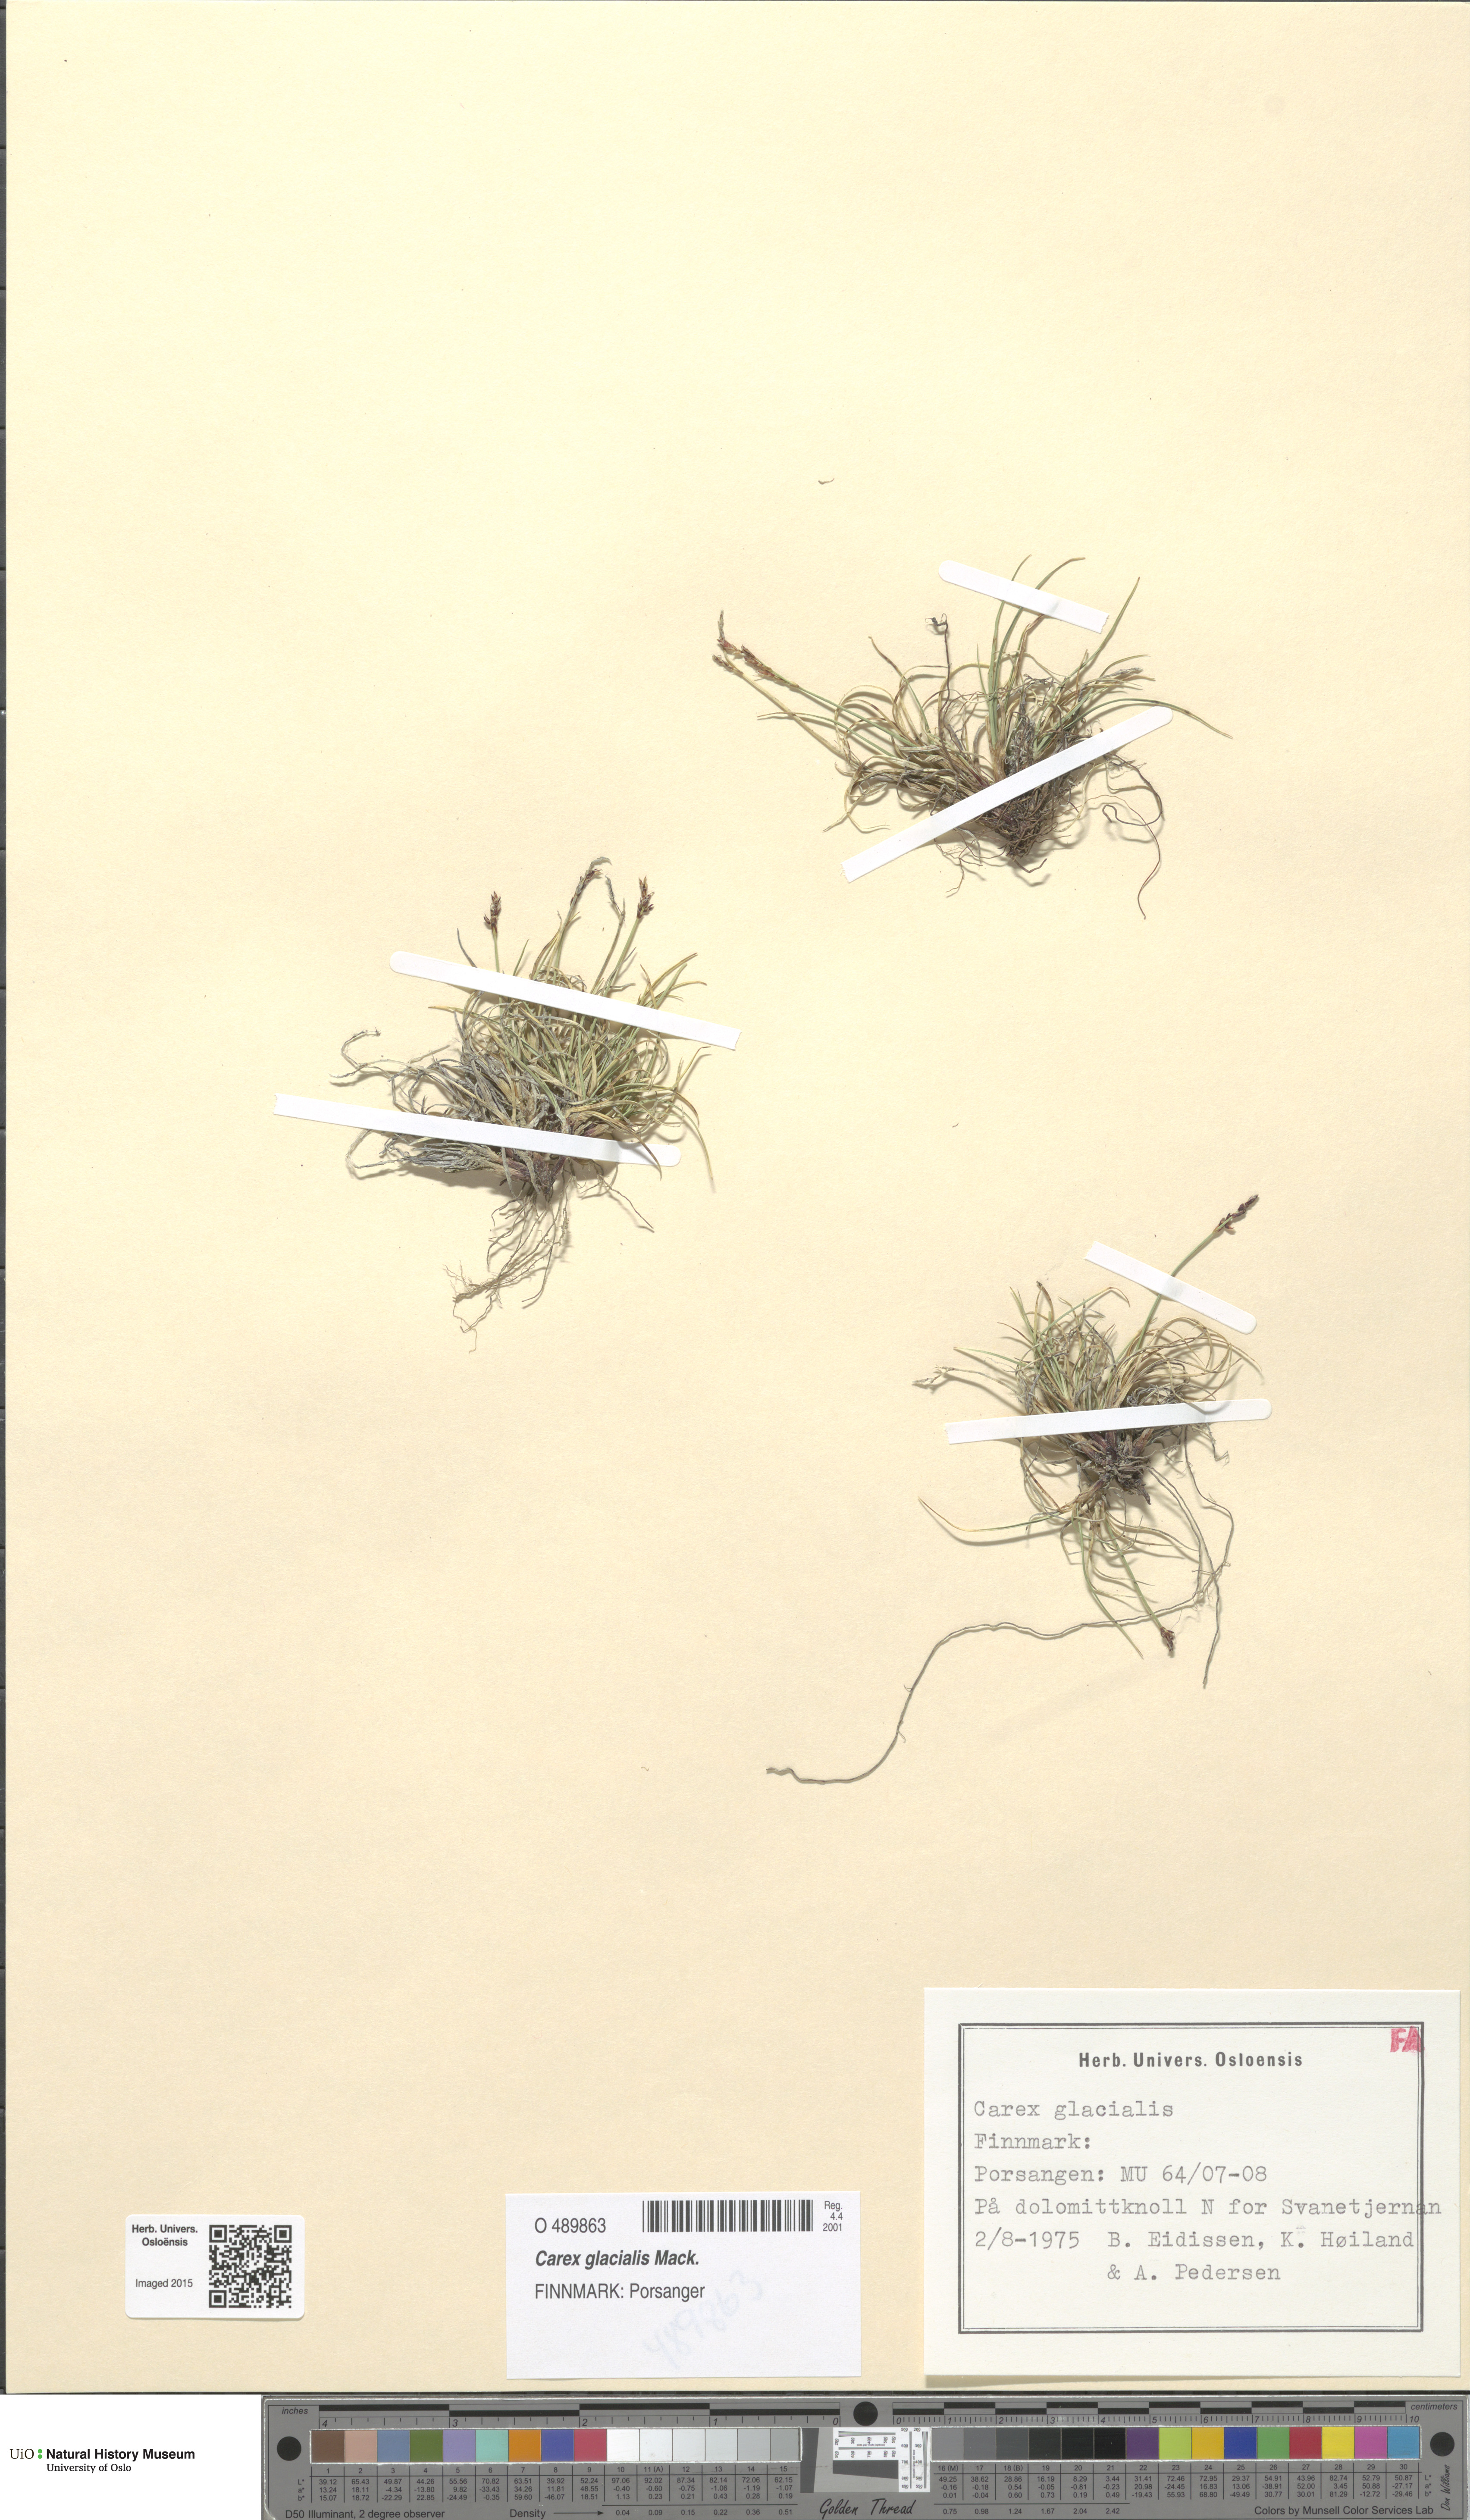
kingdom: Plantae
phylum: Tracheophyta
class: Liliopsida
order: Poales
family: Cyperaceae
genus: Carex
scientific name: Carex glacialis
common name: Newfoundland sedge
